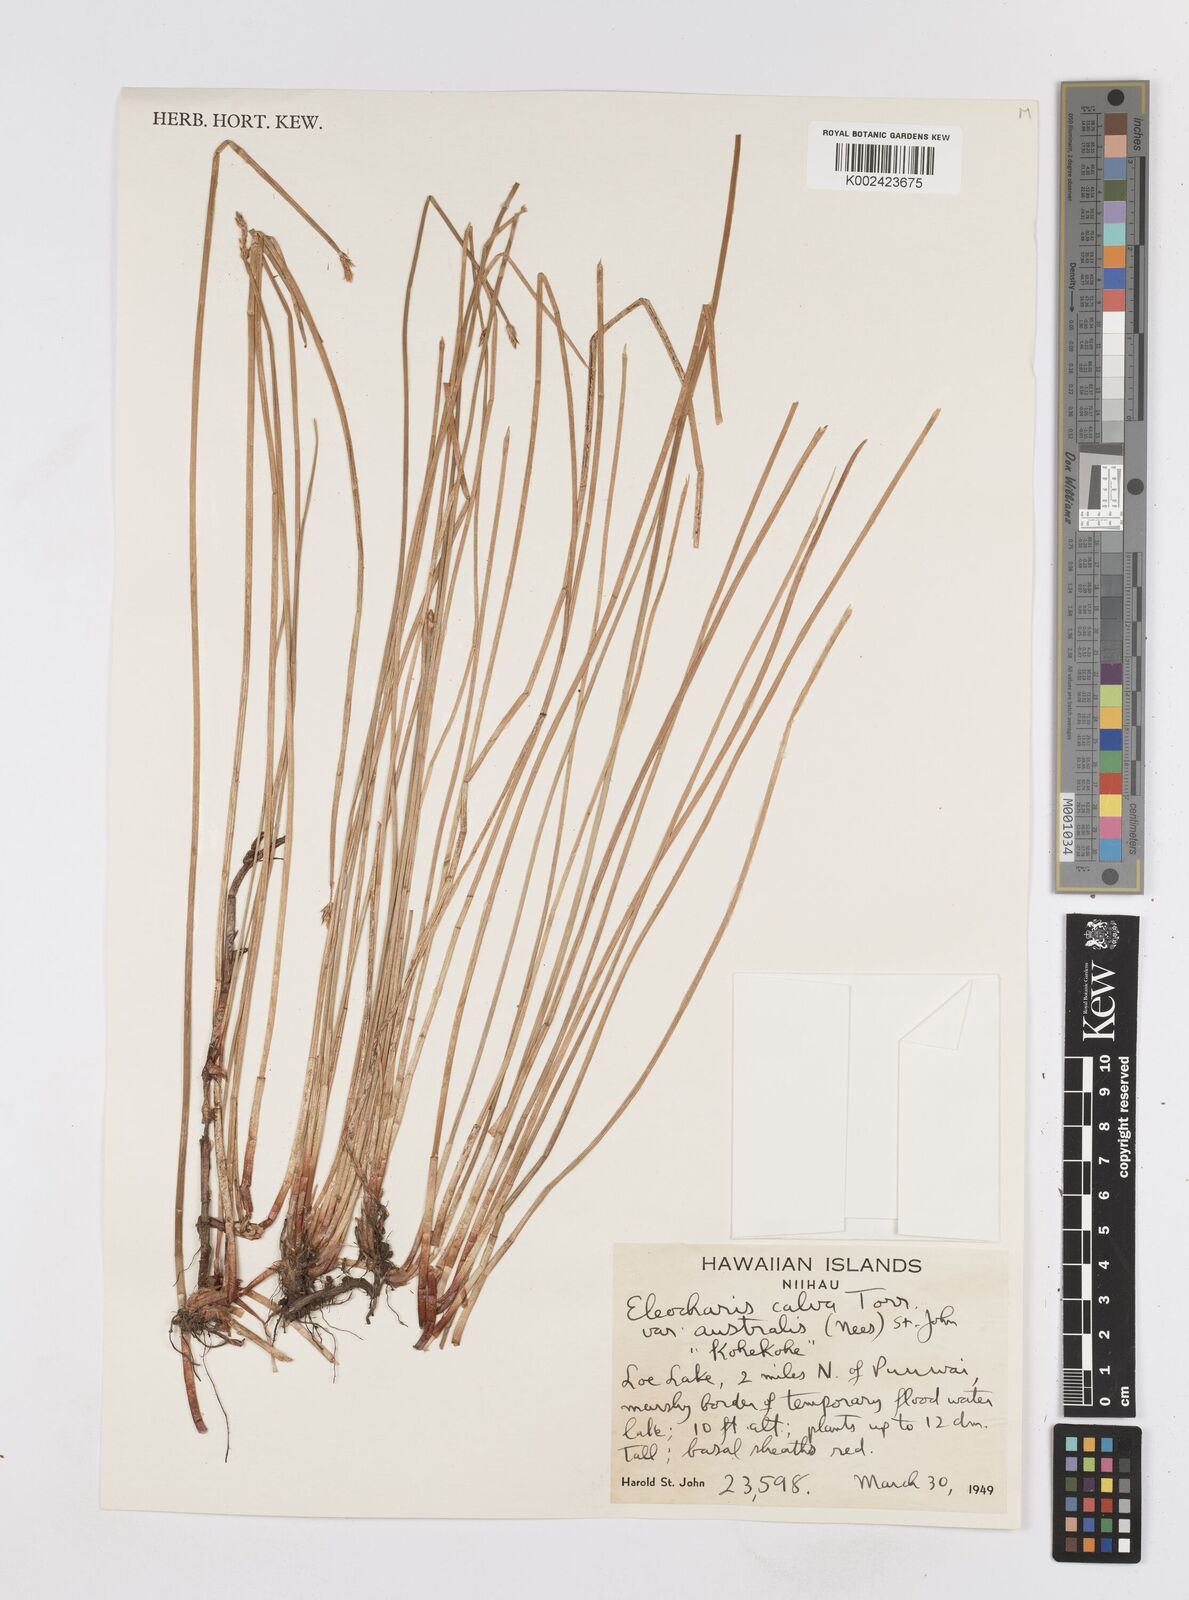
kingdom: Plantae
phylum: Tracheophyta
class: Liliopsida
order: Poales
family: Cyperaceae
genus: Eleocharis
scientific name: Eleocharis erythropoda
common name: Bald spikerush
